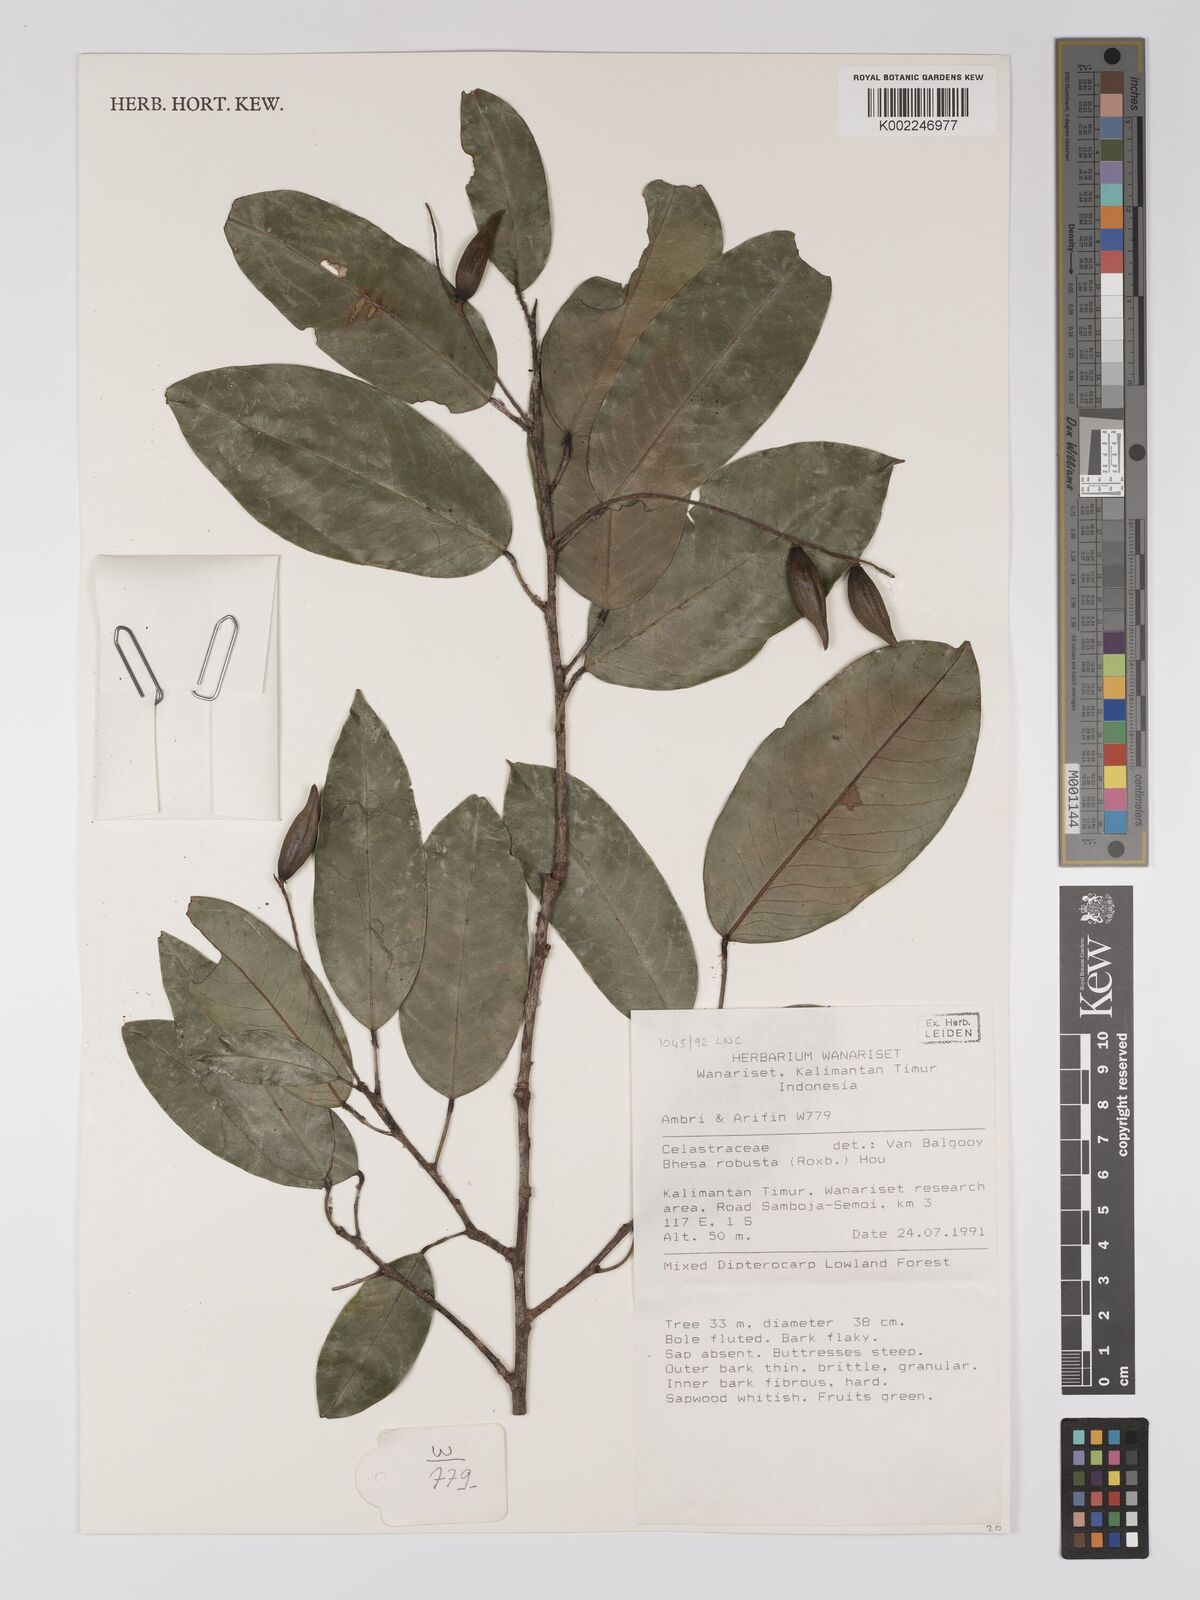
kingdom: Plantae
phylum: Tracheophyta
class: Magnoliopsida
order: Malpighiales
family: Centroplacaceae
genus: Bhesa
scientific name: Bhesa robusta
